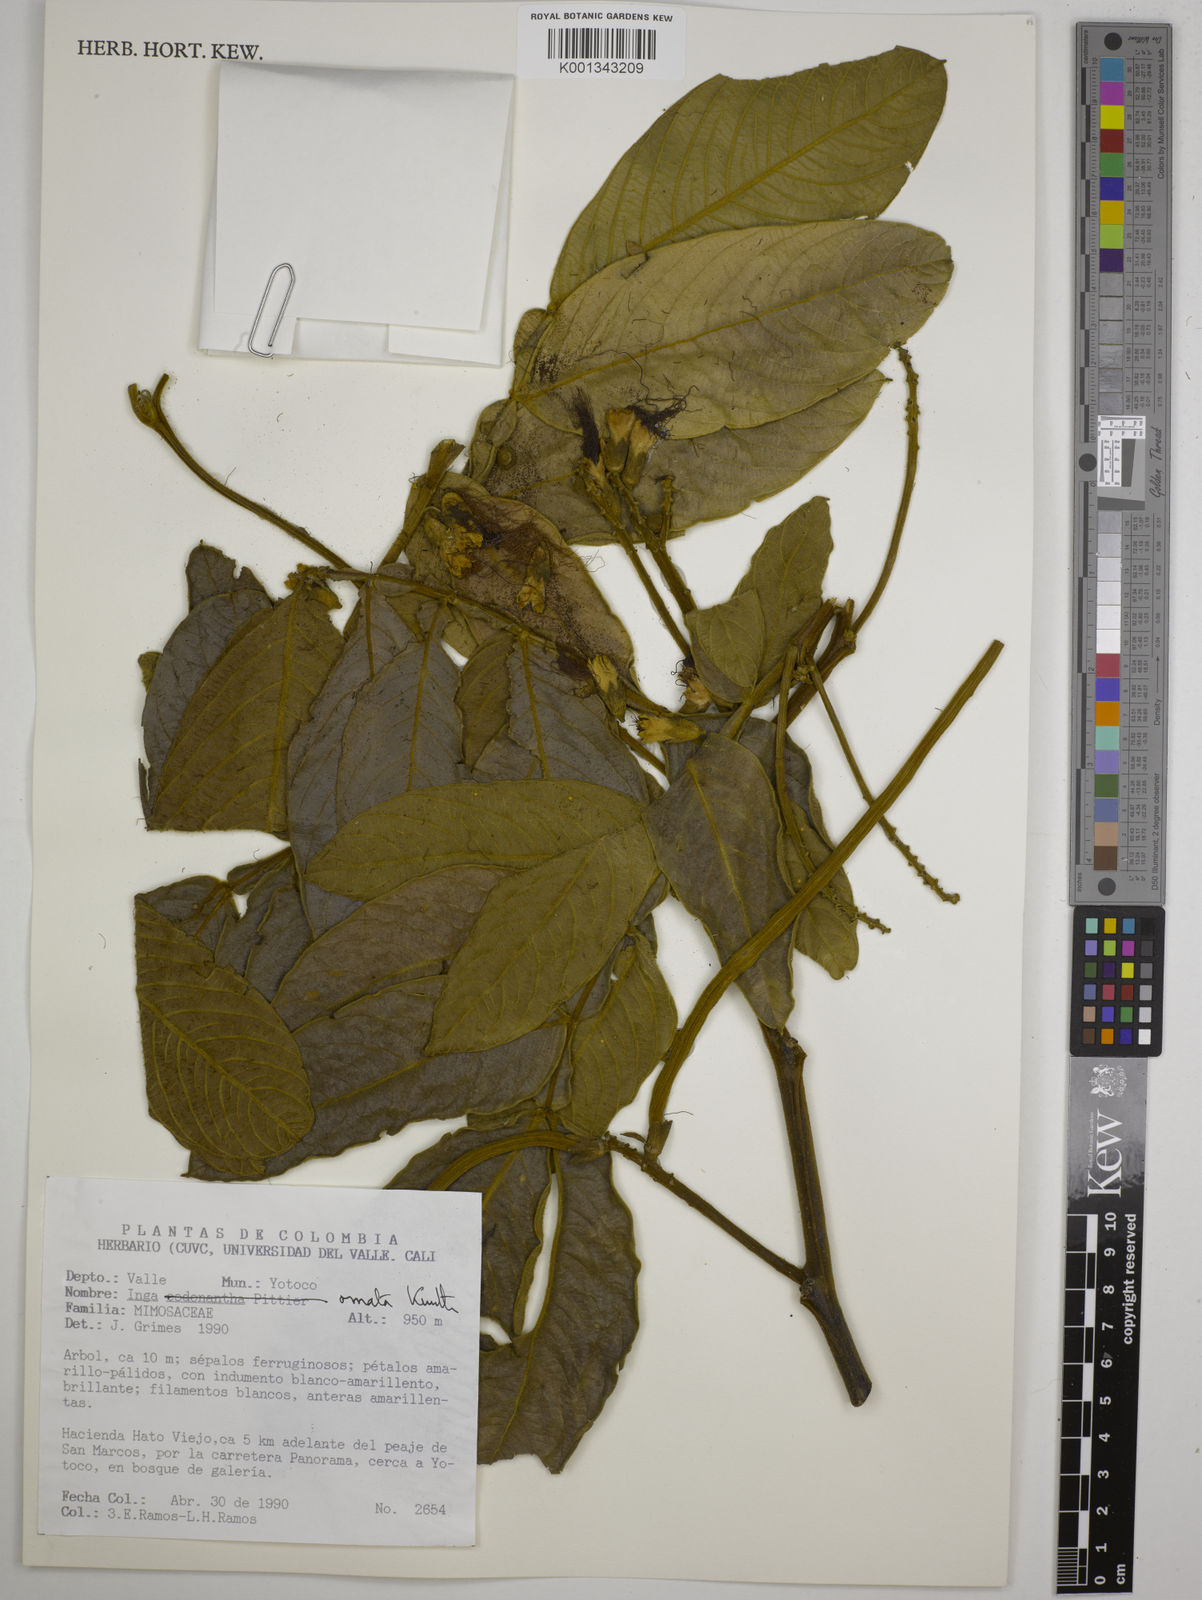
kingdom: Plantae
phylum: Tracheophyta
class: Magnoliopsida
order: Fabales
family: Fabaceae
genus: Inga
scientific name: Inga ornata
